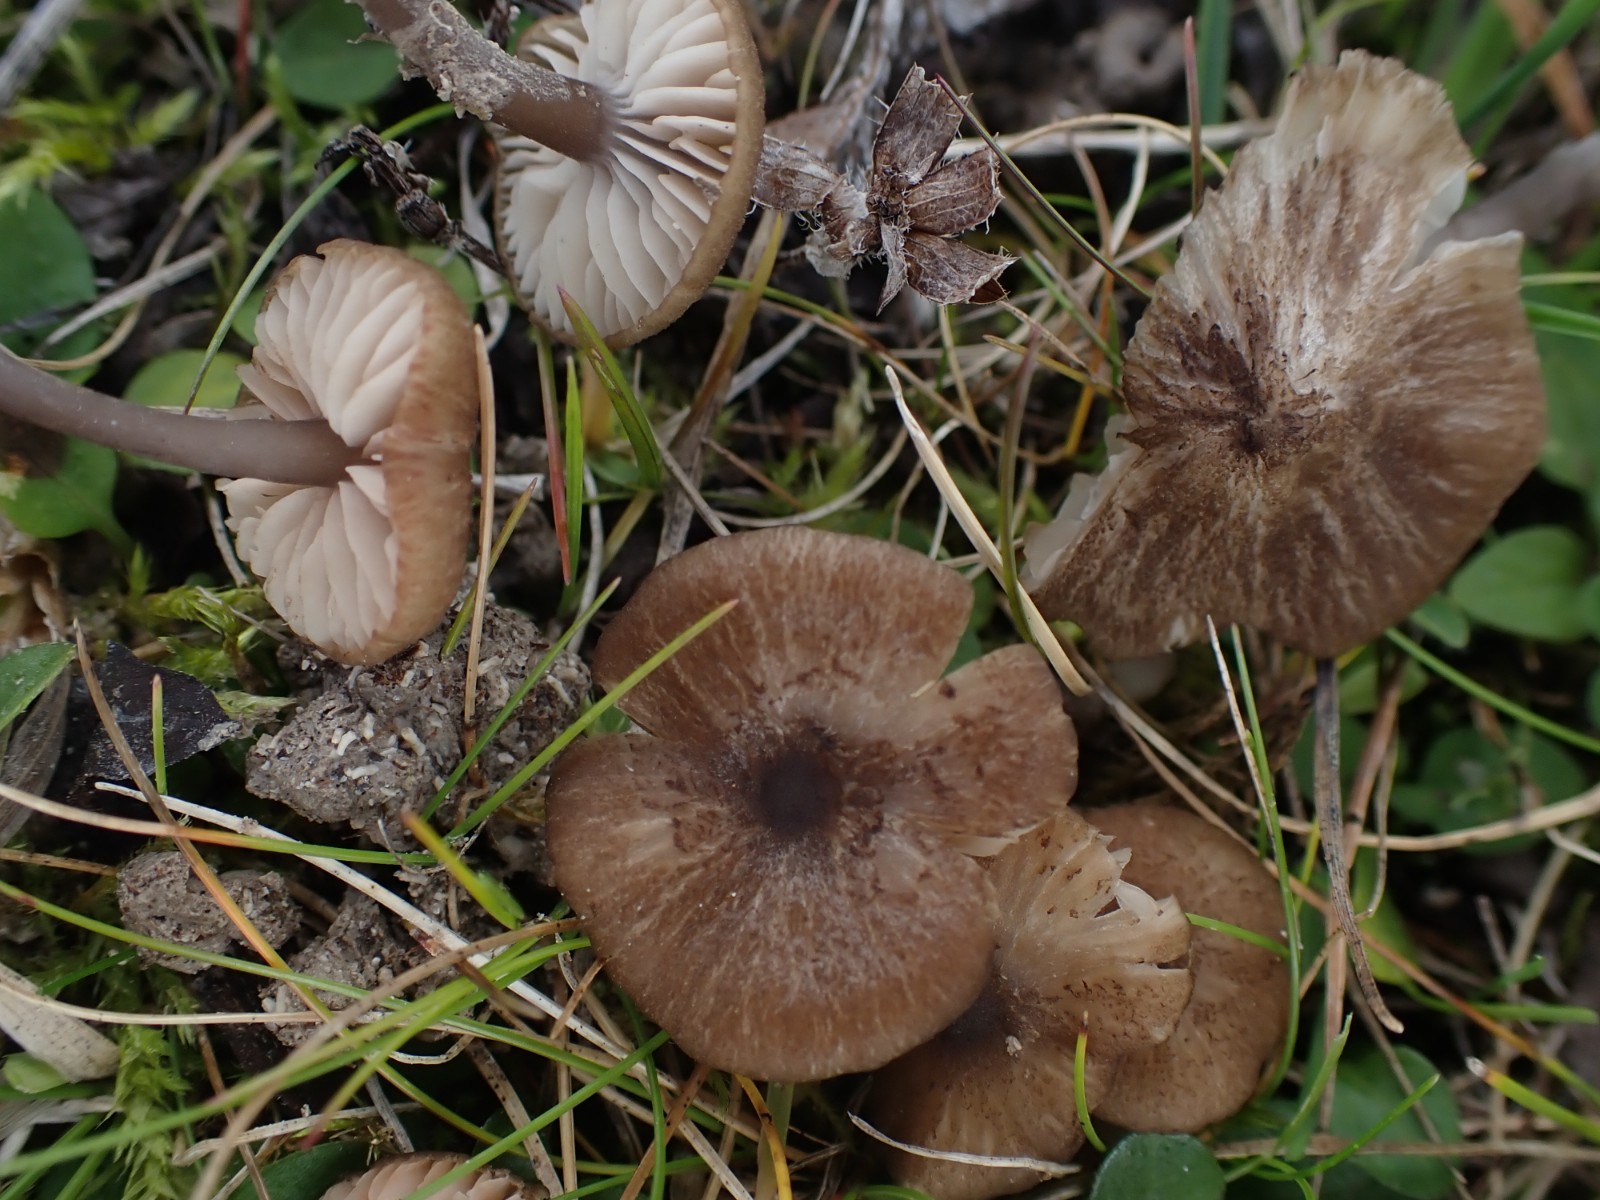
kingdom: Fungi
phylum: Basidiomycota
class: Agaricomycetes
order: Agaricales
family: Entolomataceae
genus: Entoloma
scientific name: Entoloma
